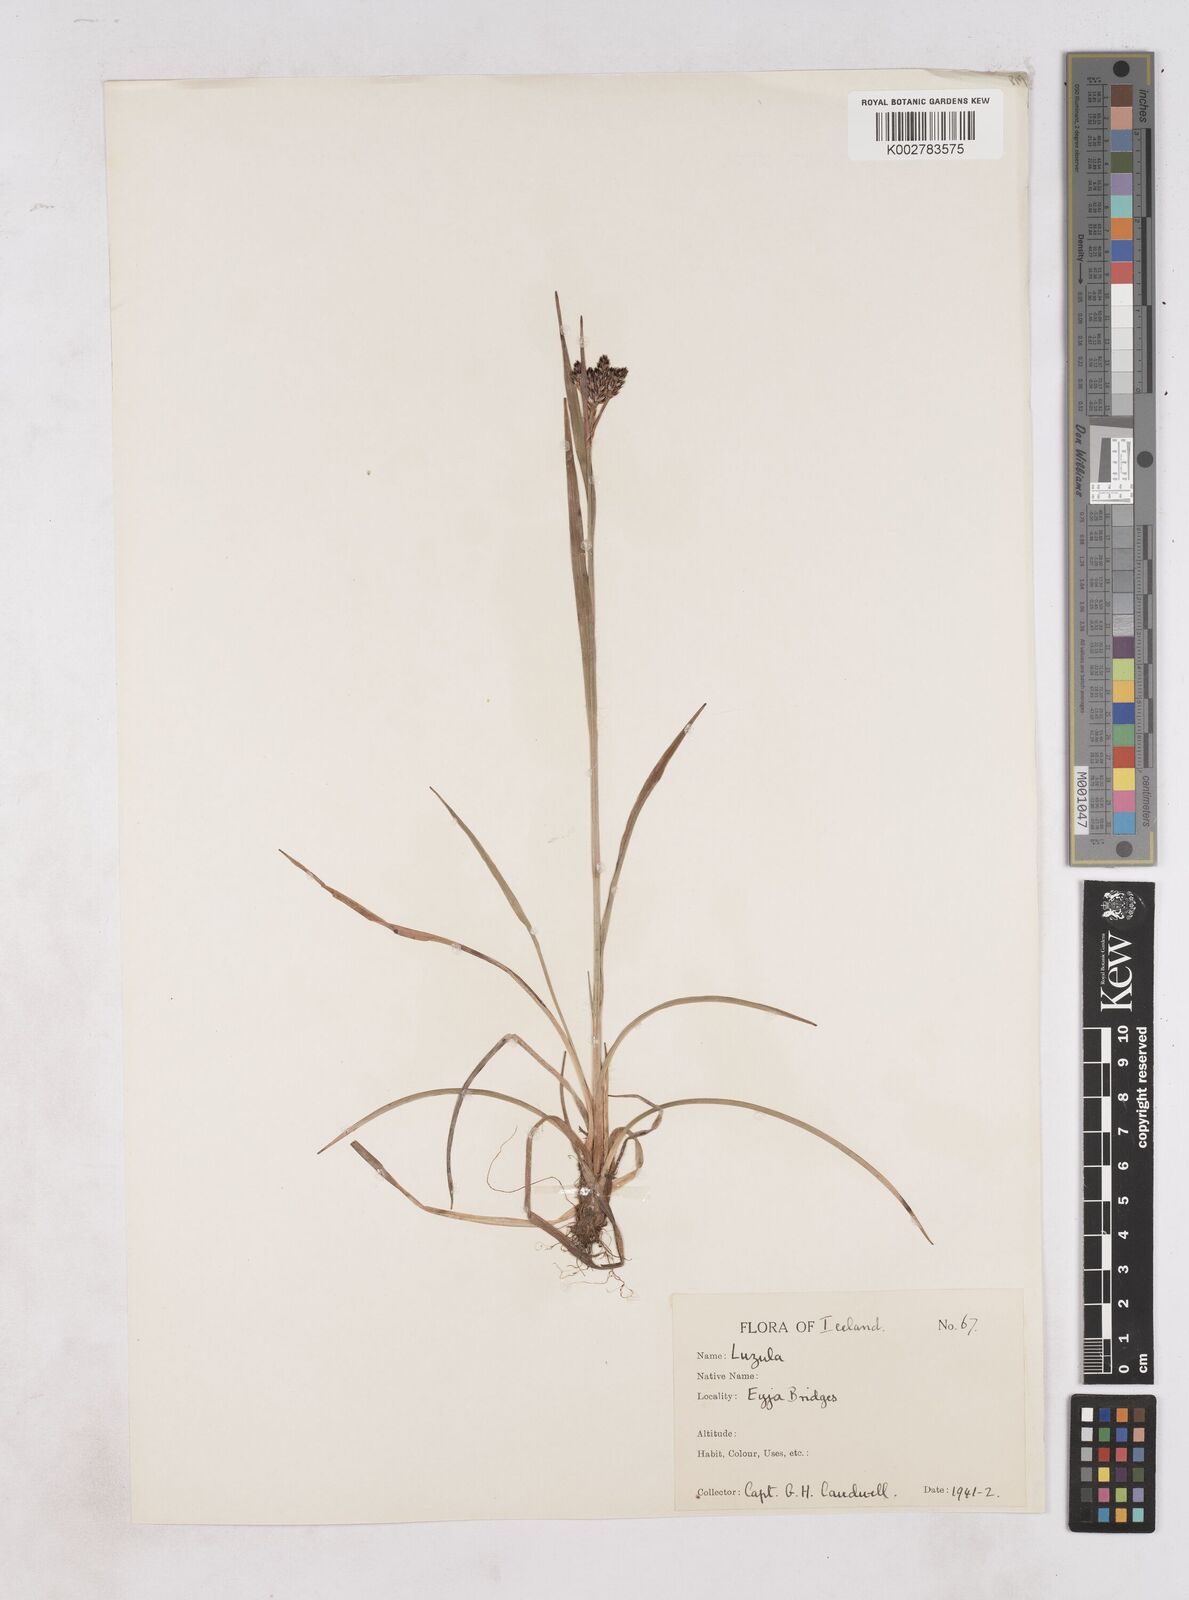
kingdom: Plantae
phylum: Tracheophyta
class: Liliopsida
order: Poales
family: Juncaceae
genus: Luzula
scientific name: Luzula
